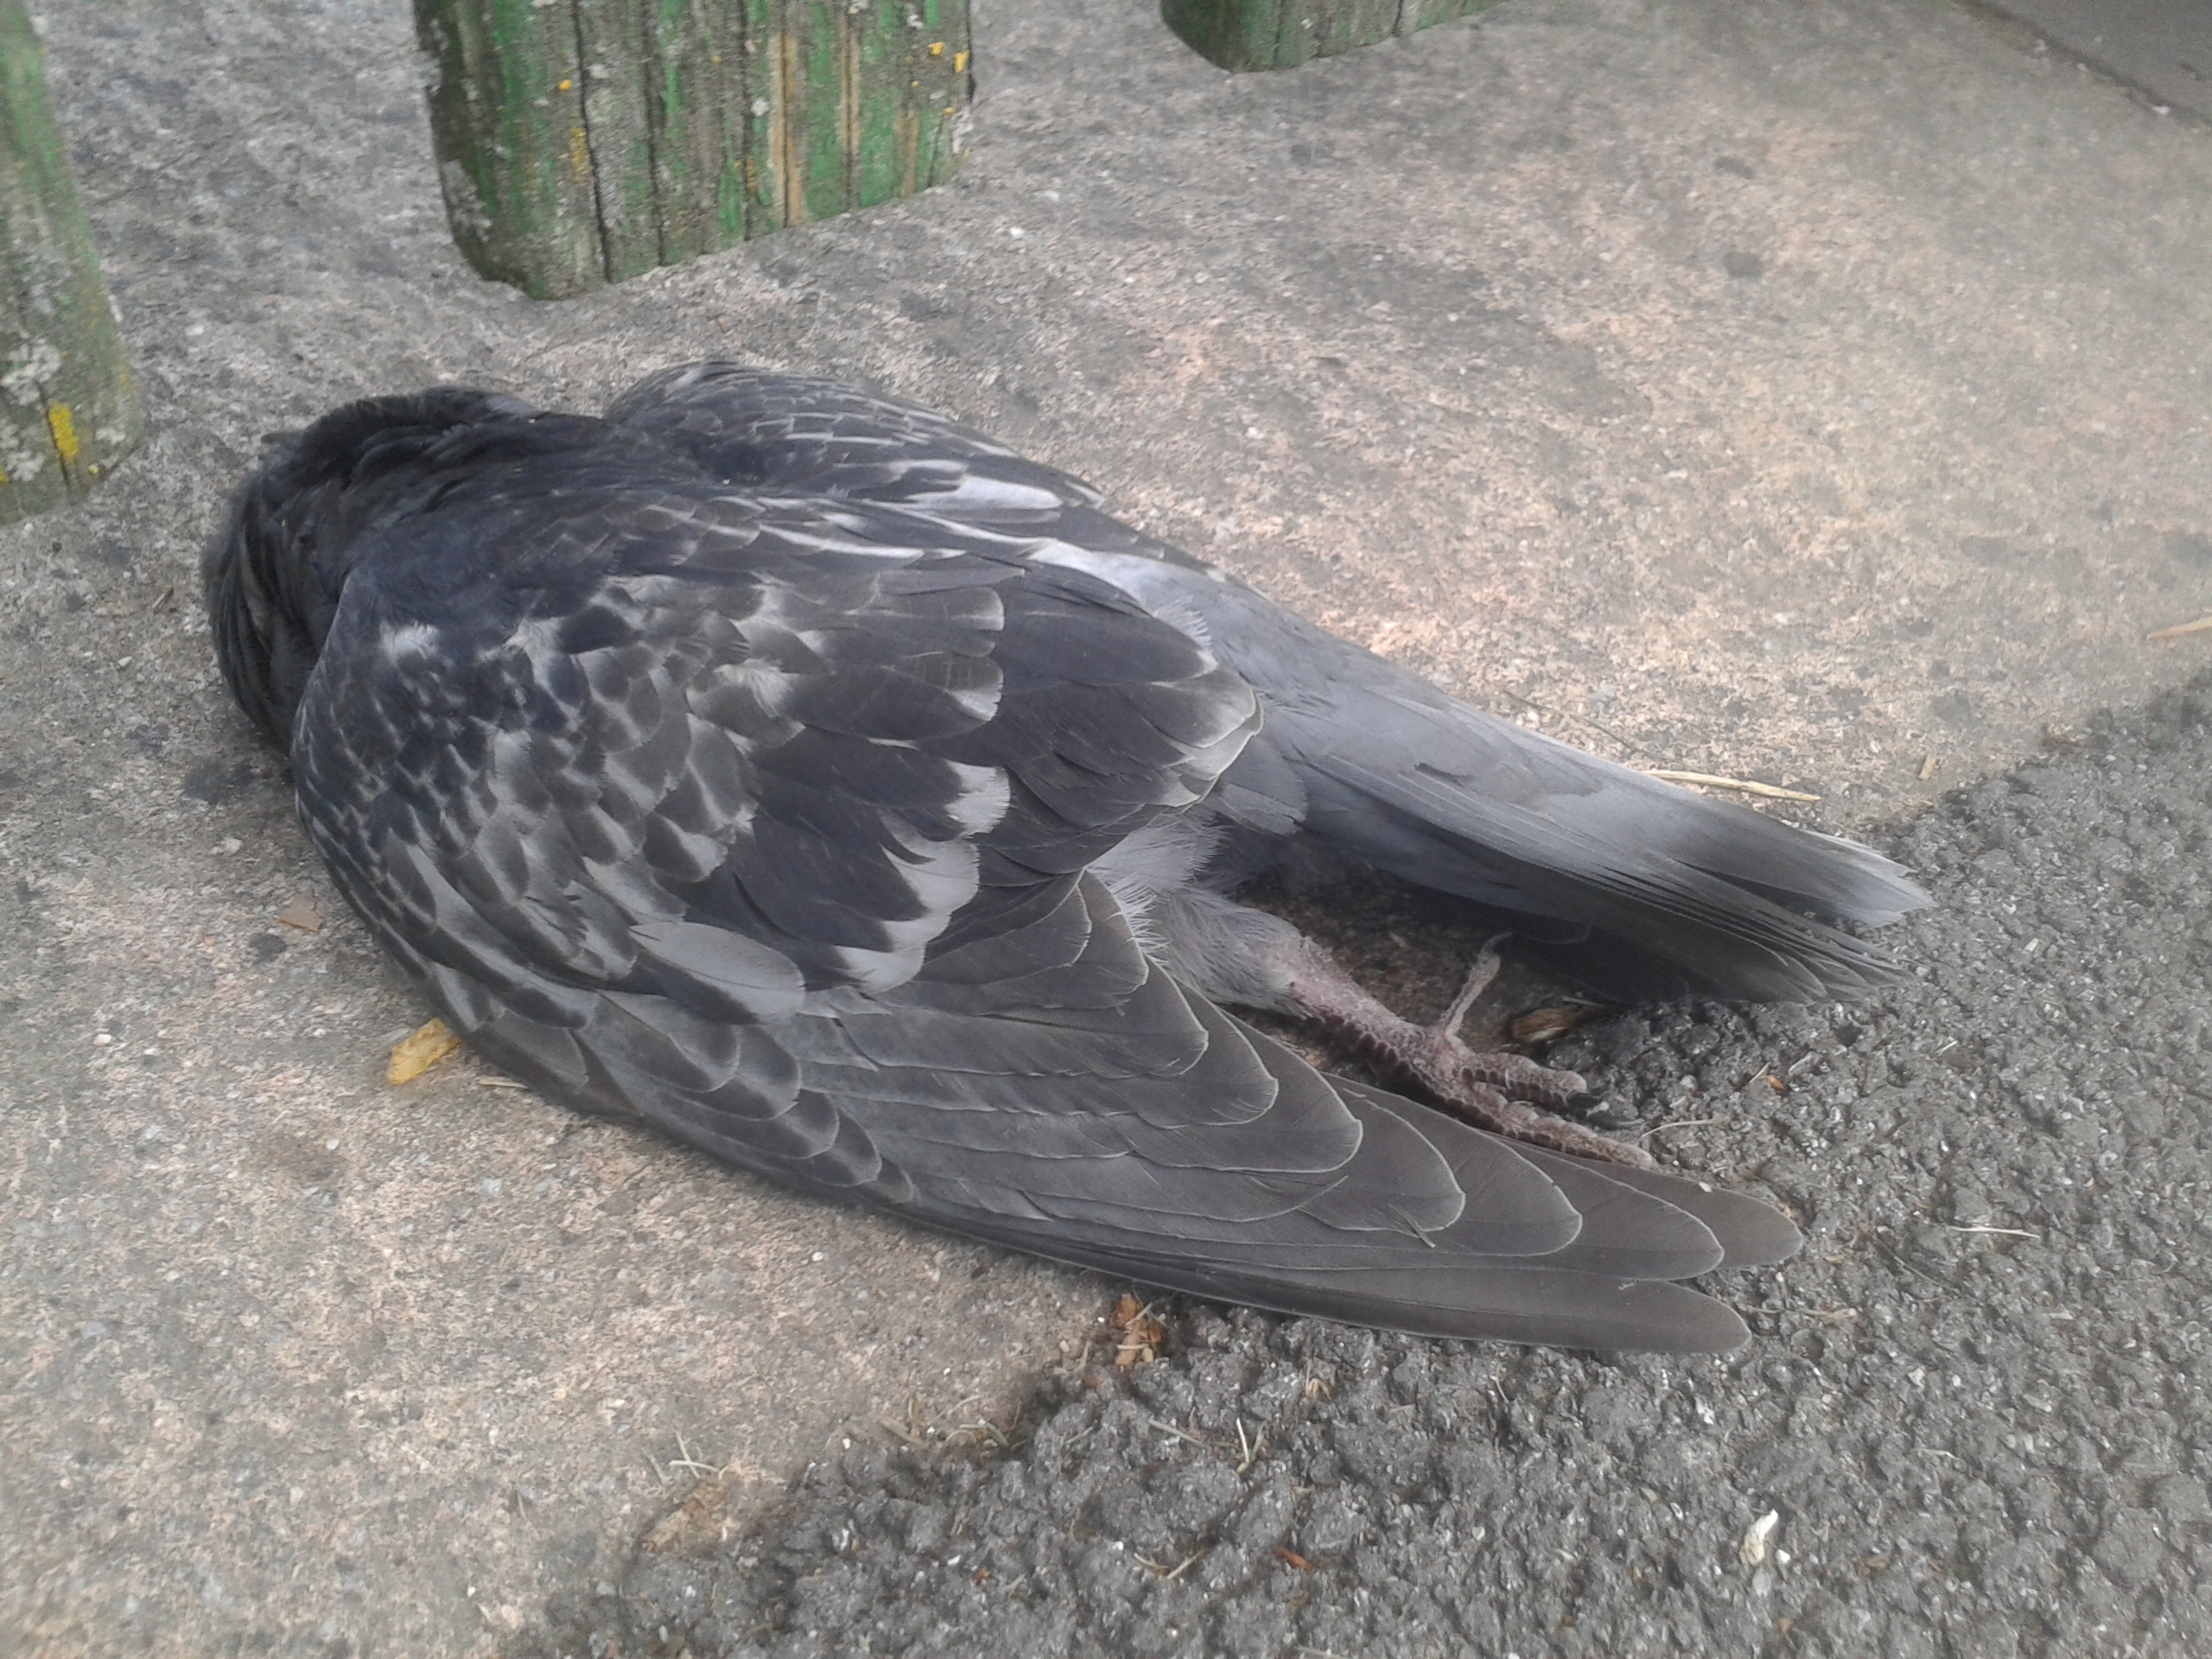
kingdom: Animalia
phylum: Chordata
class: Aves
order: Columbiformes
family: Columbidae
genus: Columba
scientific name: Columba livia
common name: Rock pigeon
